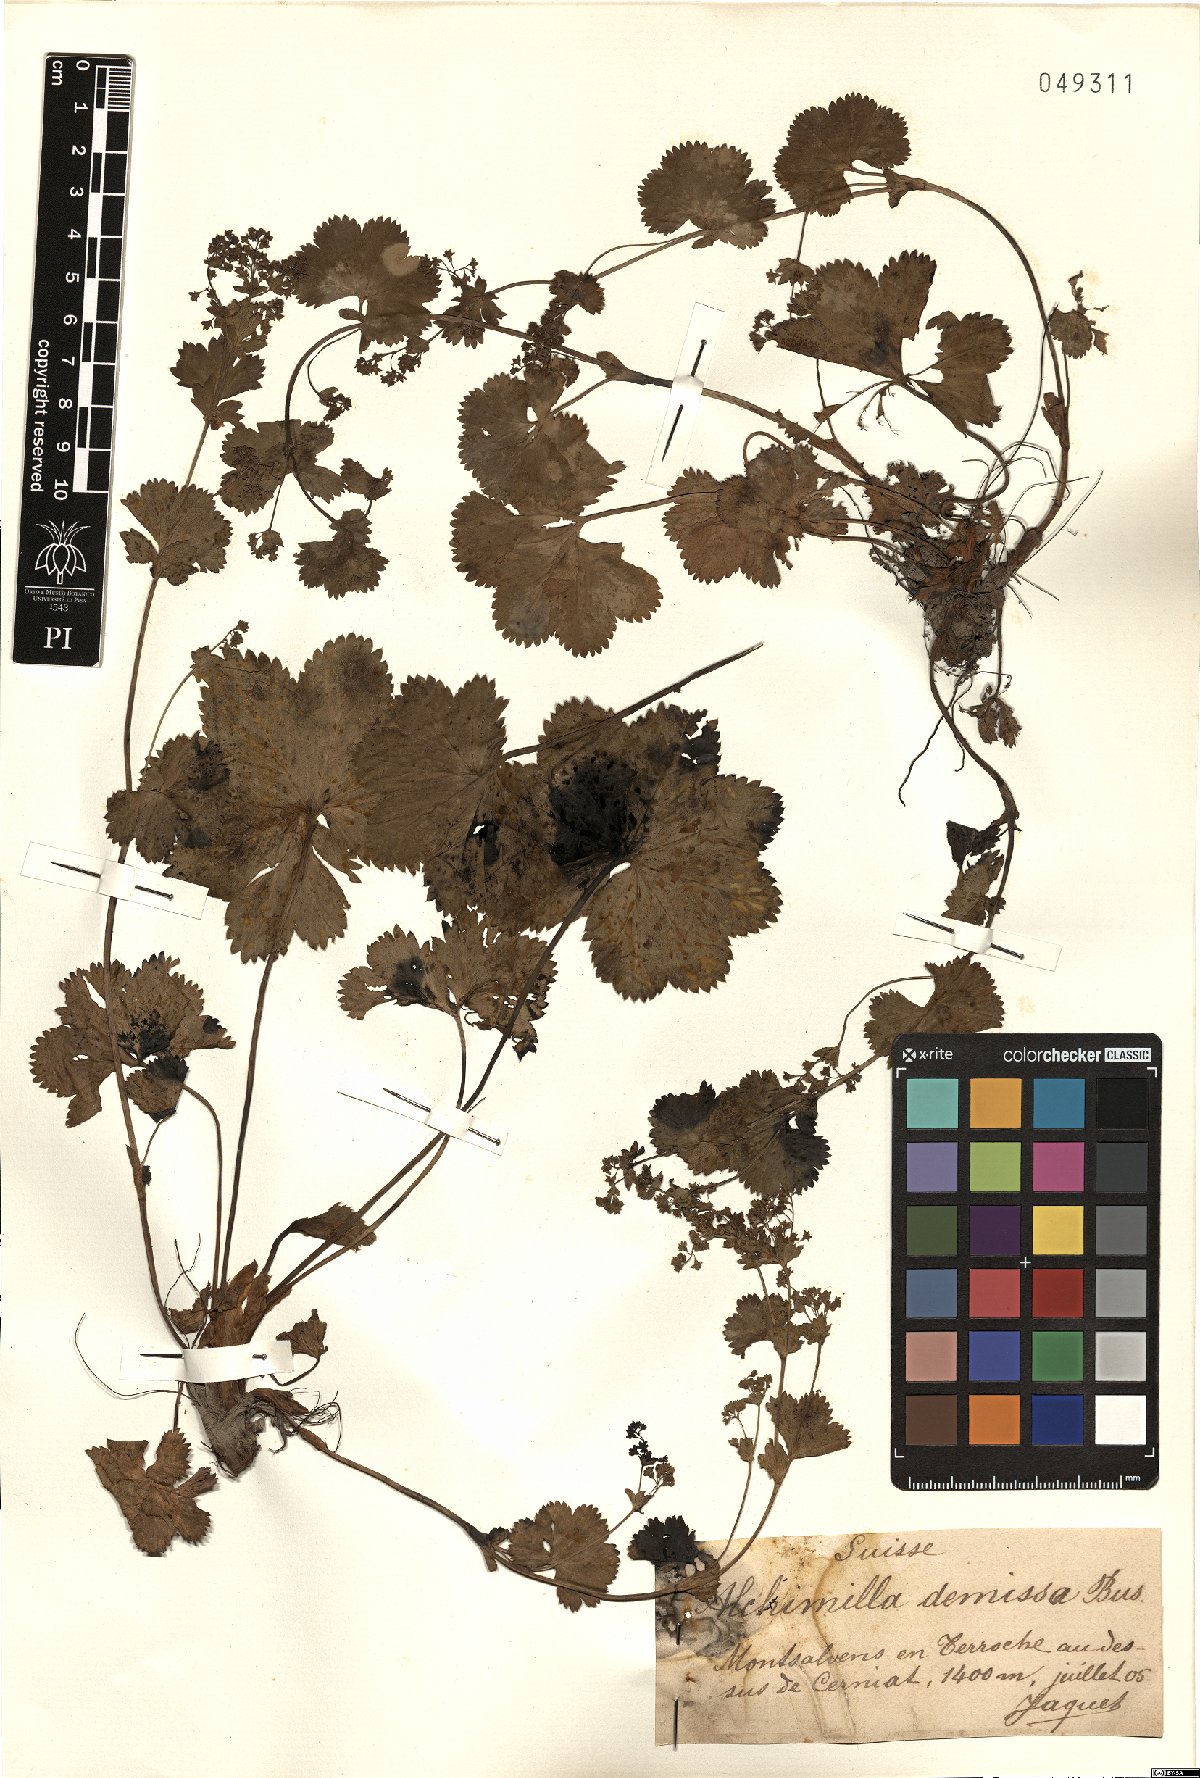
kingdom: Plantae
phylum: Tracheophyta
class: Magnoliopsida
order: Rosales
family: Rosaceae
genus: Alchemilla
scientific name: Alchemilla demissa
